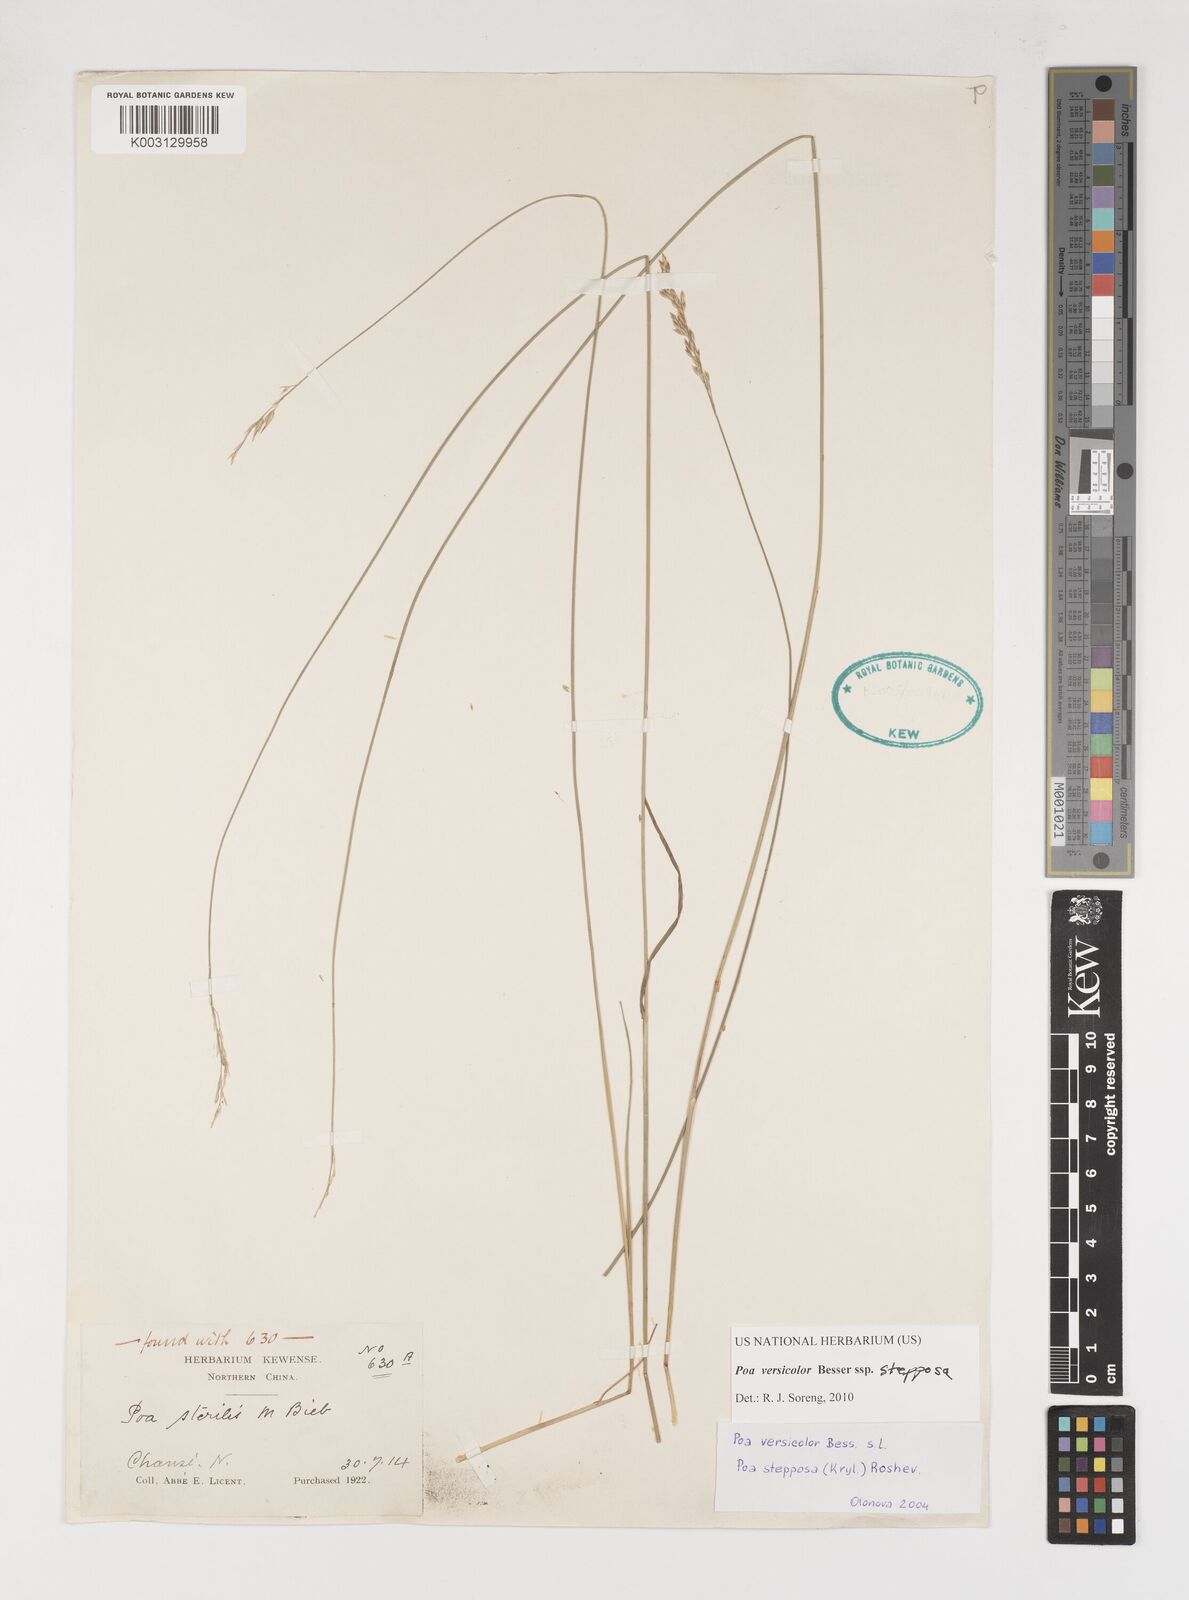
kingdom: Plantae
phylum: Tracheophyta
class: Liliopsida
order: Poales
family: Poaceae
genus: Poa
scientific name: Poa versicolor
